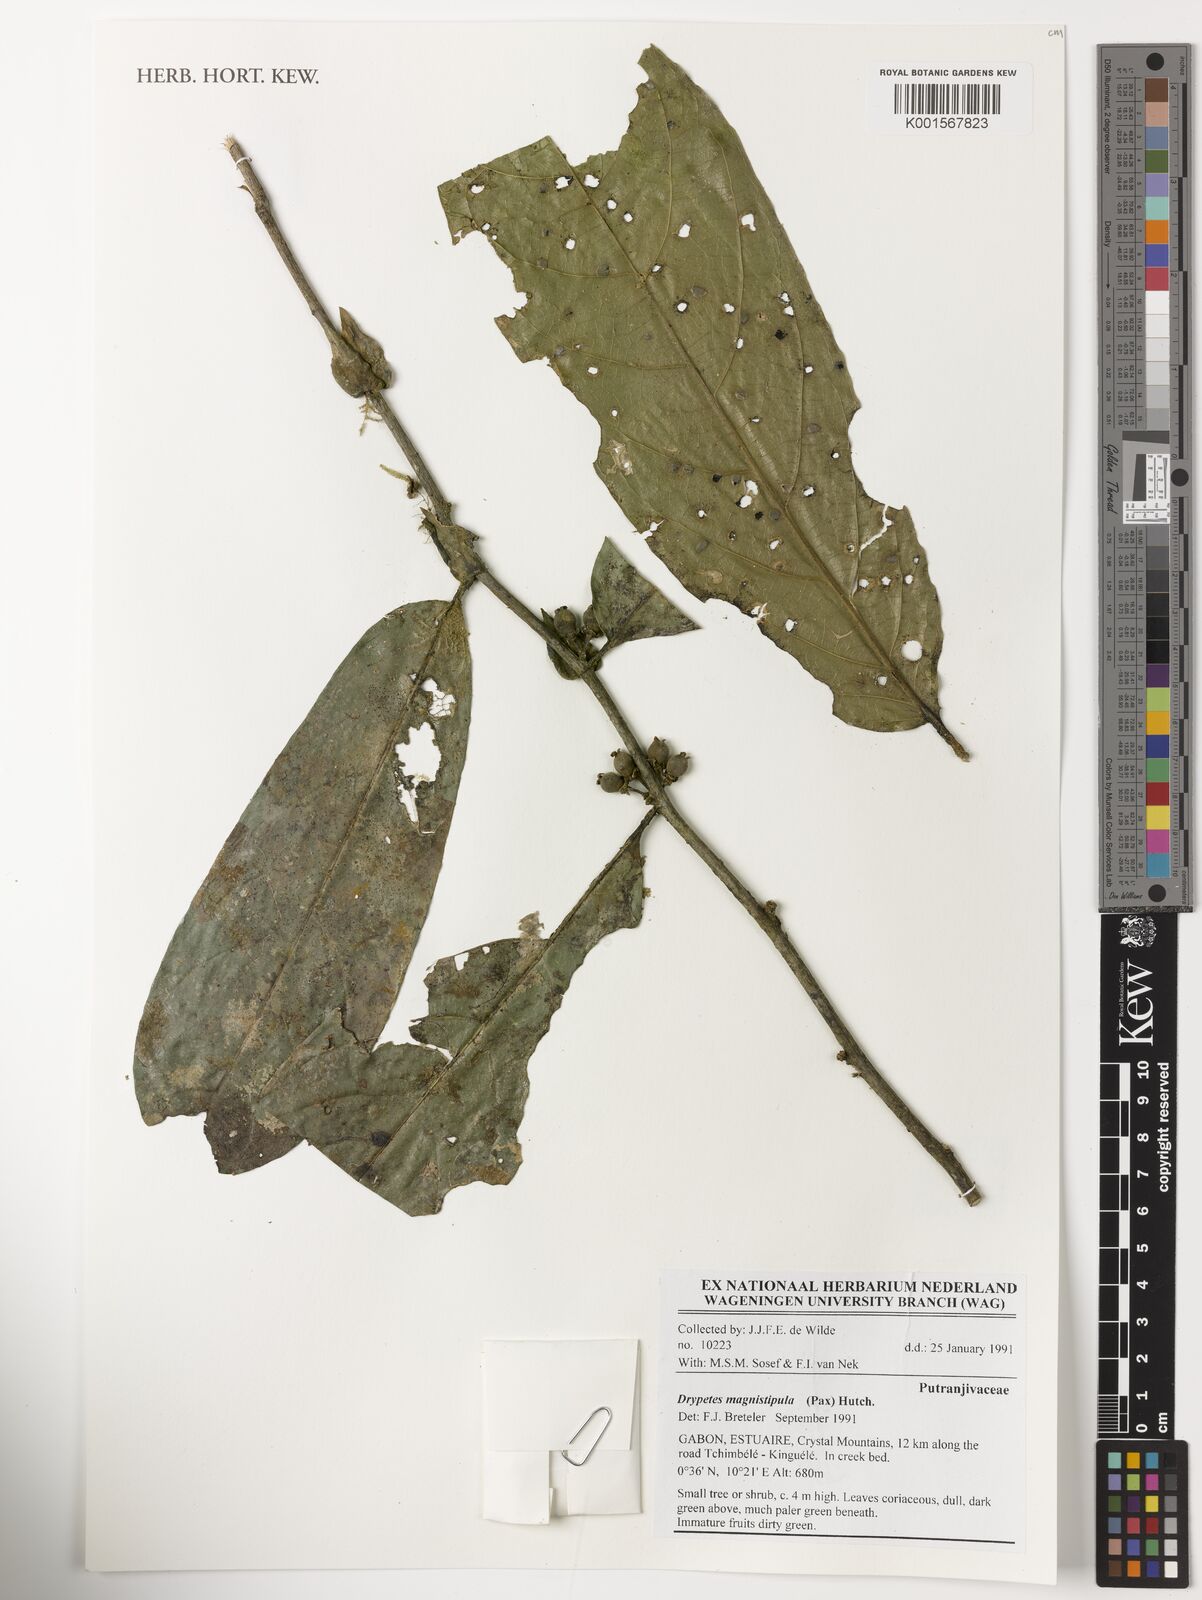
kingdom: Plantae
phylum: Tracheophyta
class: Magnoliopsida
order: Malpighiales
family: Putranjivaceae
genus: Drypetes
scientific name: Drypetes magnistipula
